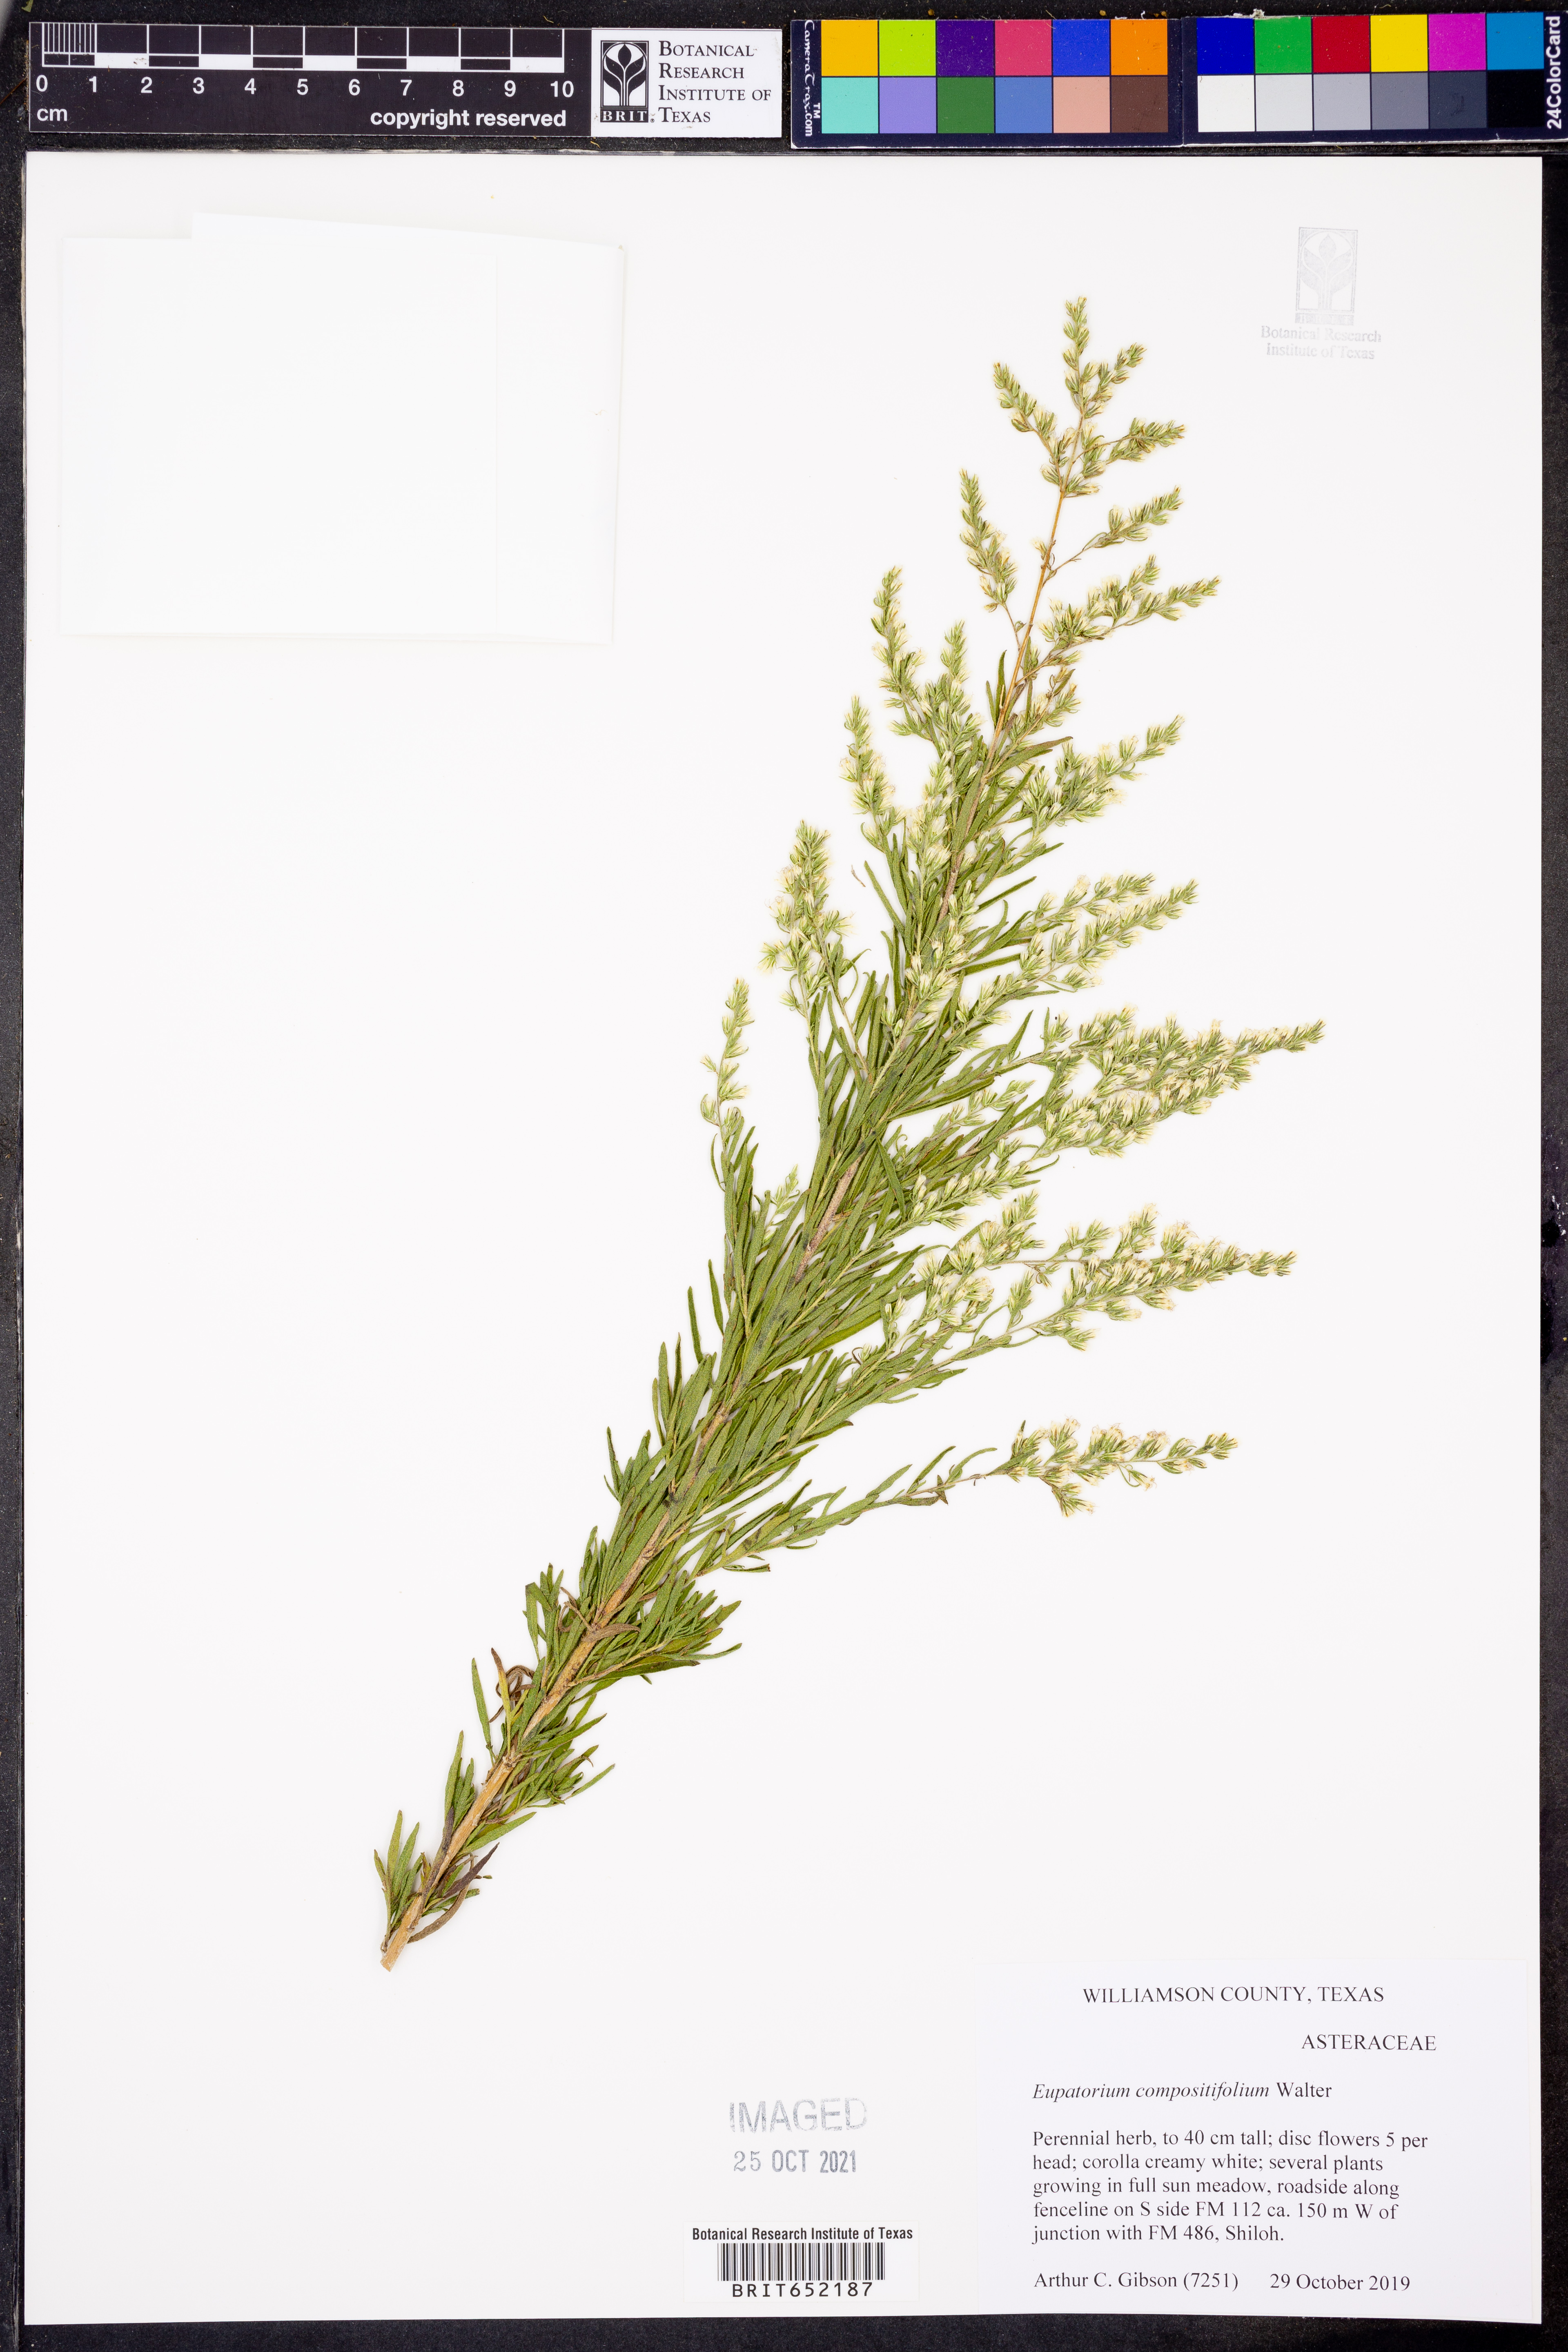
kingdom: Plantae
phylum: Tracheophyta
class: Magnoliopsida
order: Asterales
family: Asteraceae
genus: Eupatorium
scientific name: Eupatorium compositifolium
